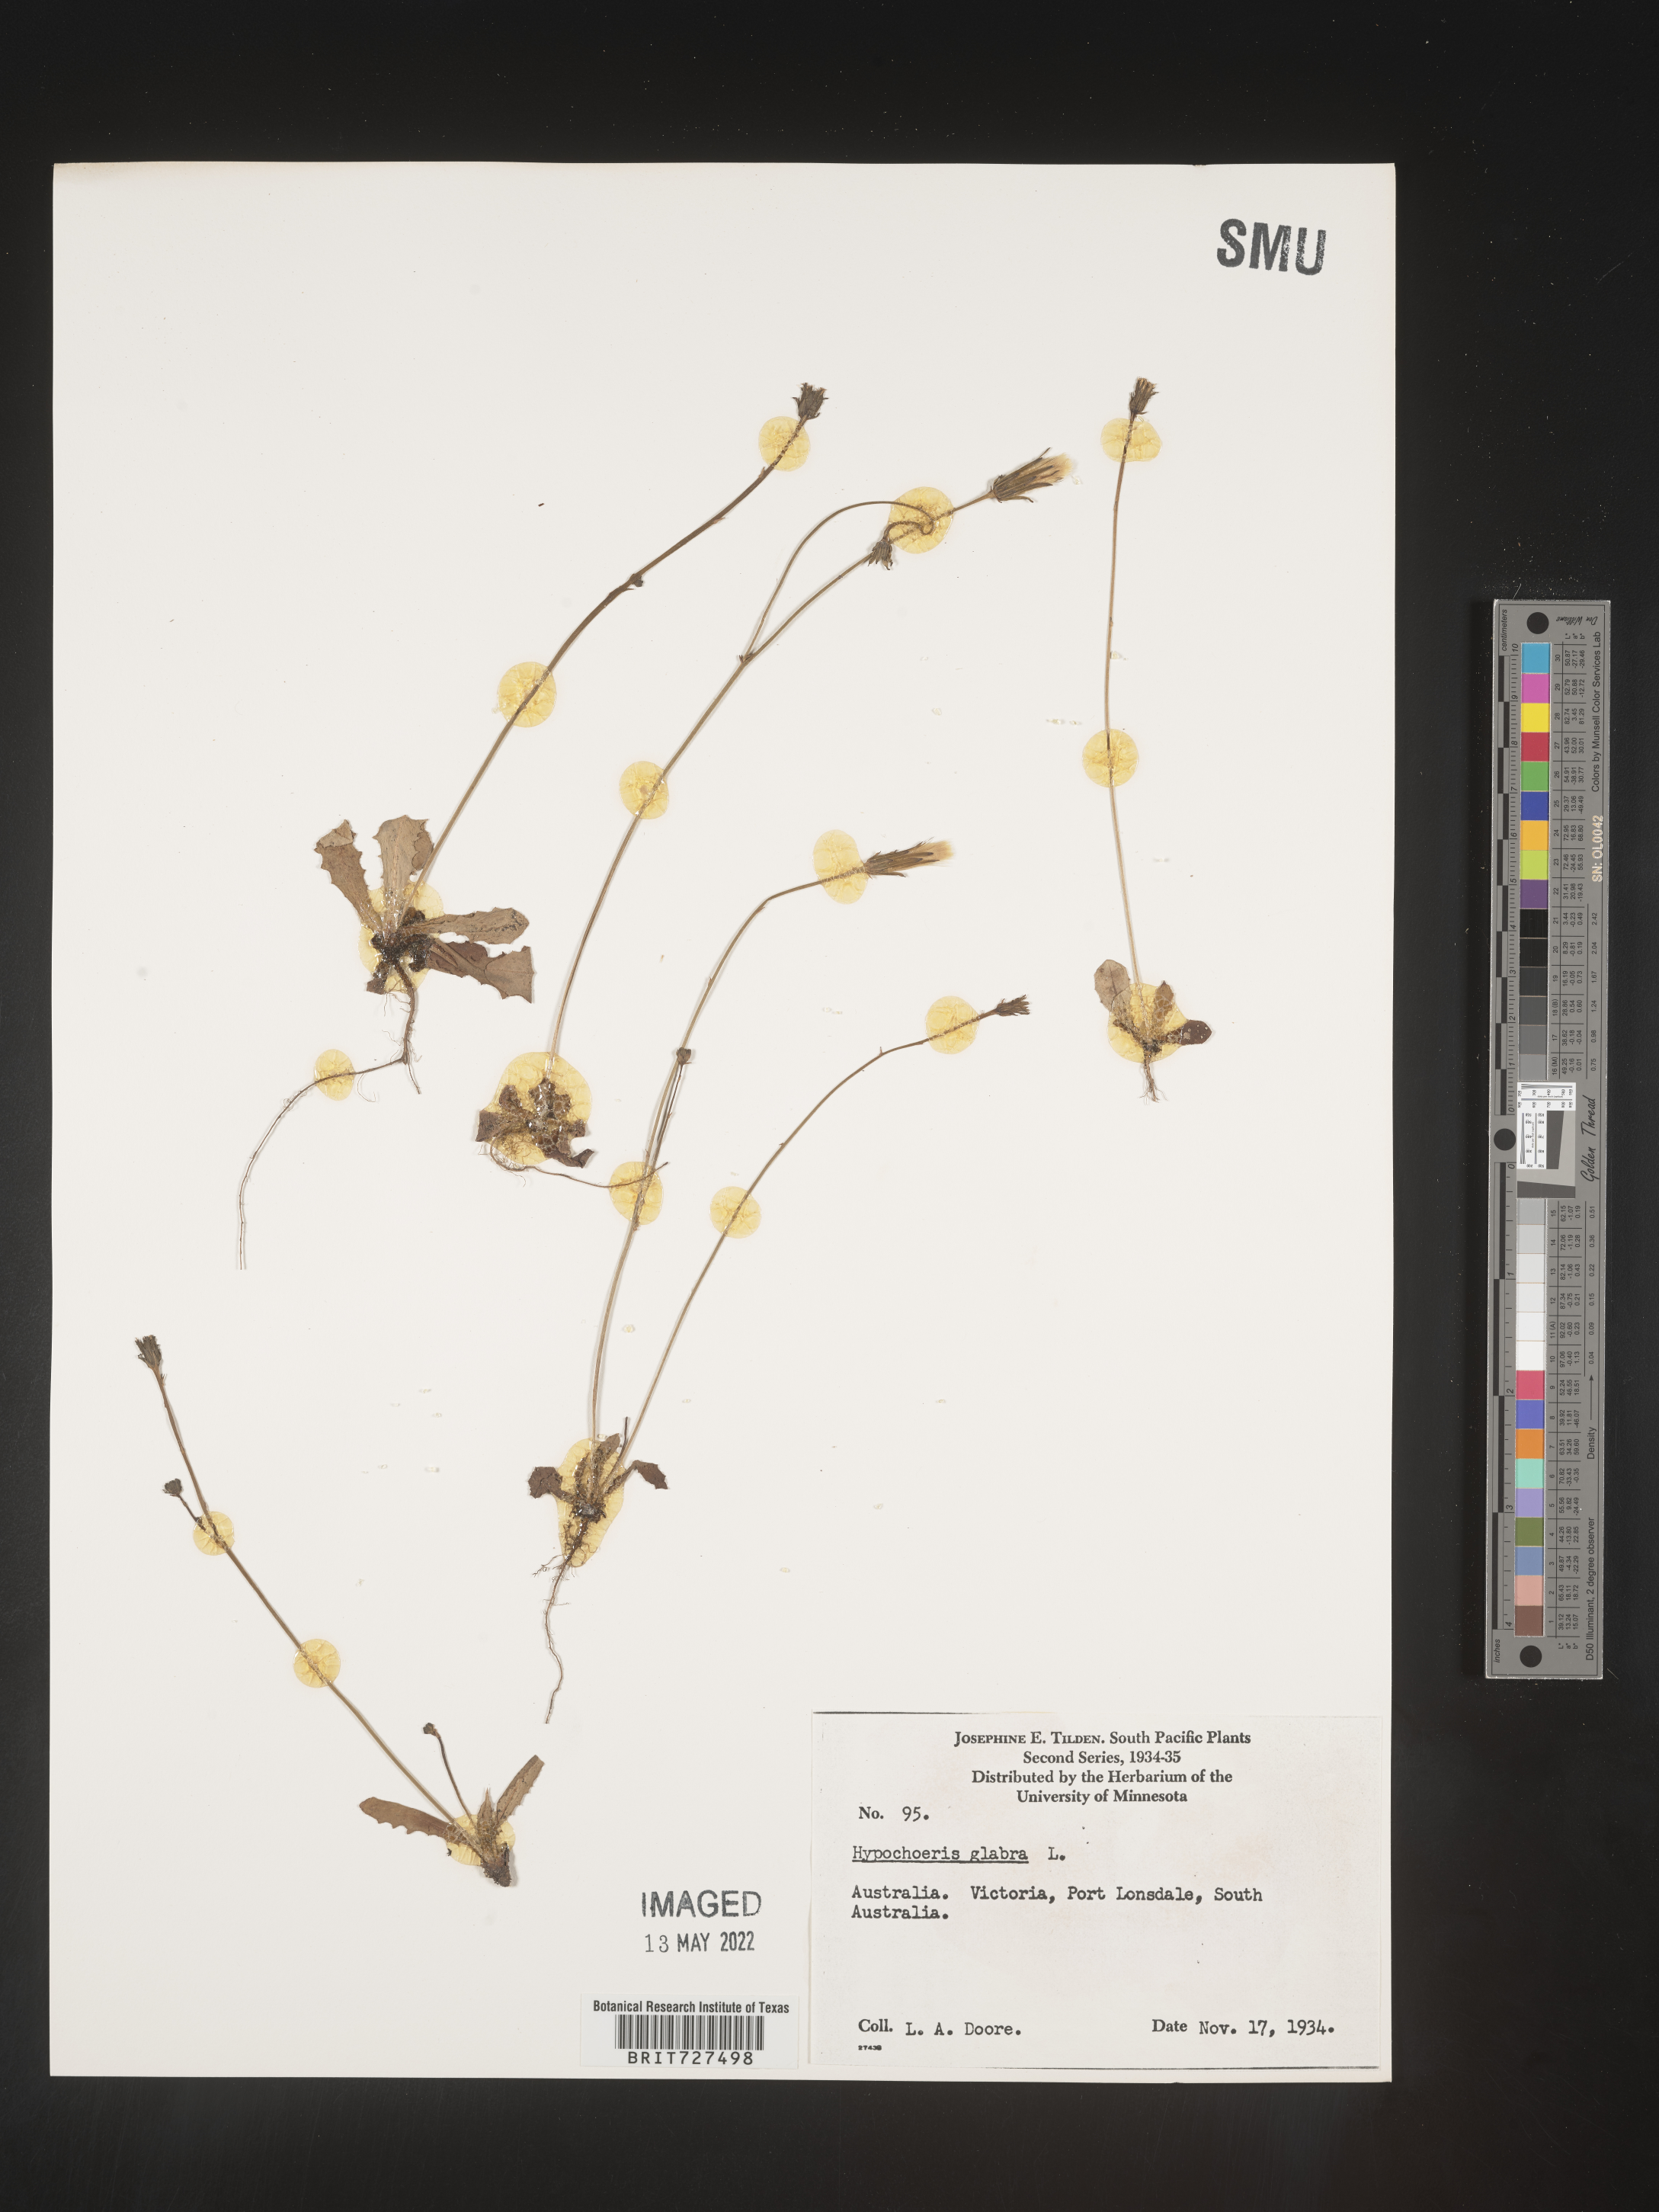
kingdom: Plantae
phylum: Tracheophyta
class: Magnoliopsida
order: Asterales
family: Asteraceae
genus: Hypochaeris
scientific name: Hypochaeris
